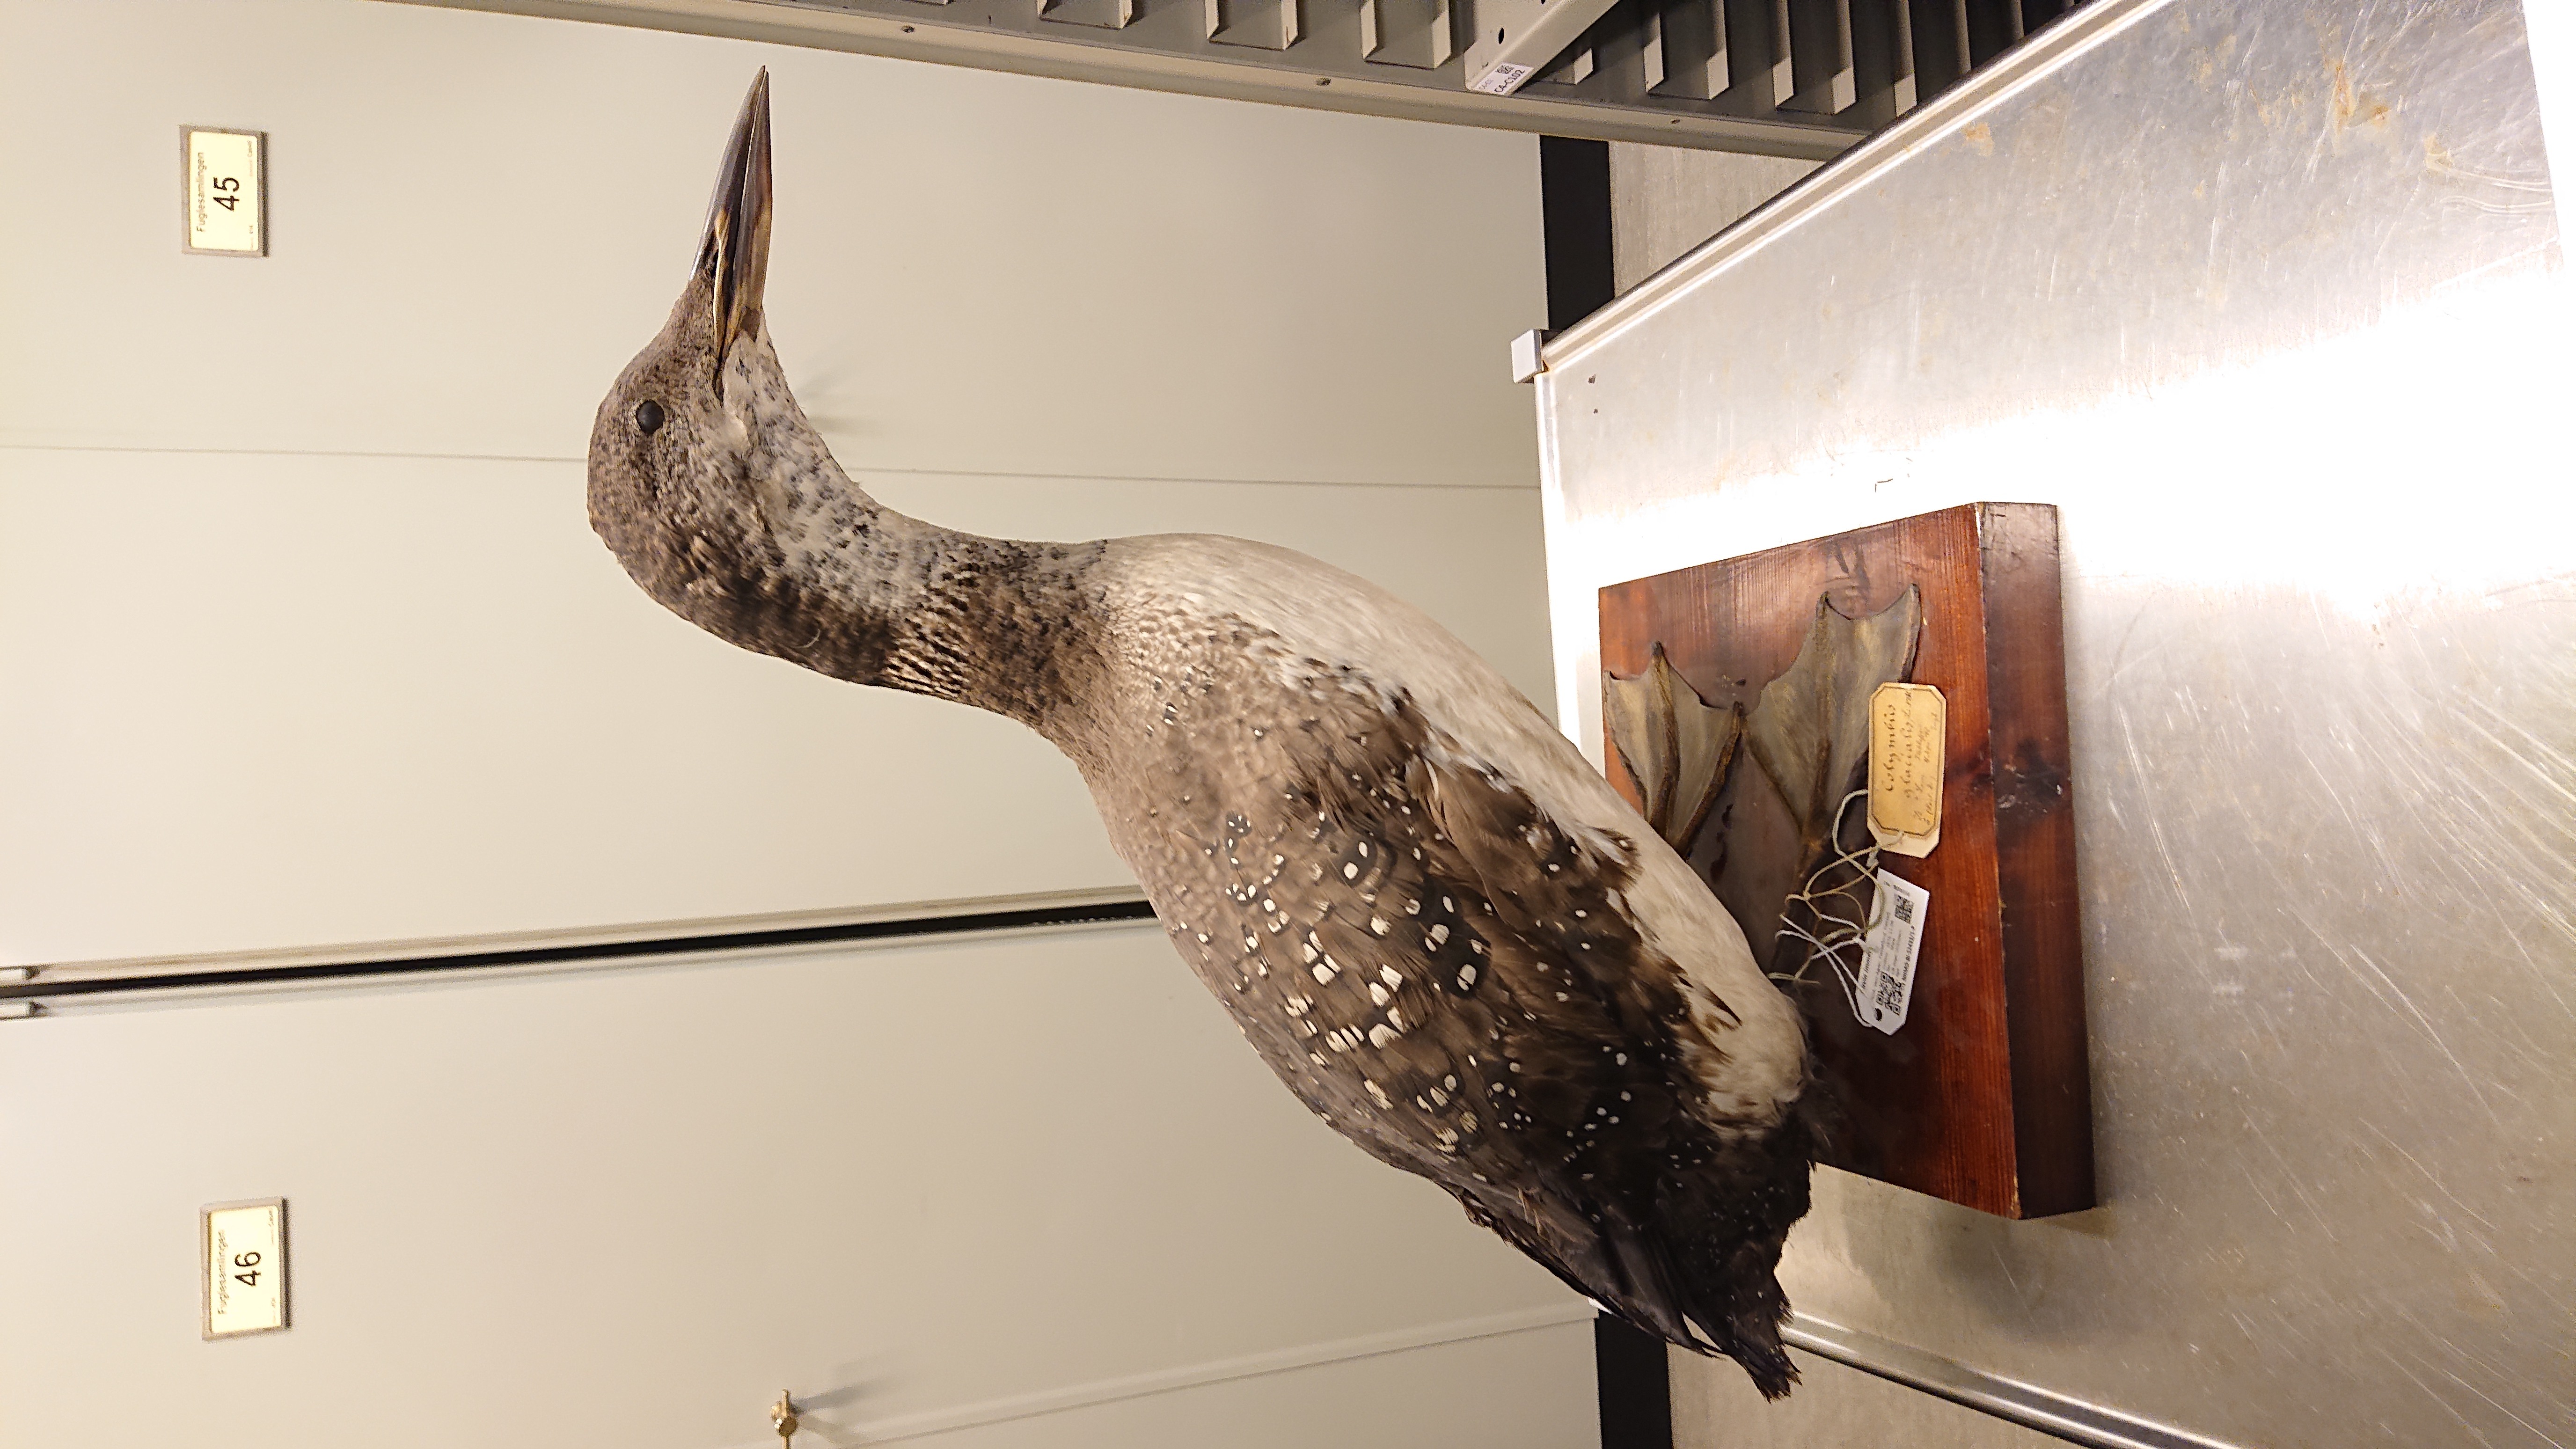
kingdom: Animalia
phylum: Chordata
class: Aves
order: Gaviiformes
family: Gaviidae
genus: Gavia
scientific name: Gavia immer
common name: Common loon
